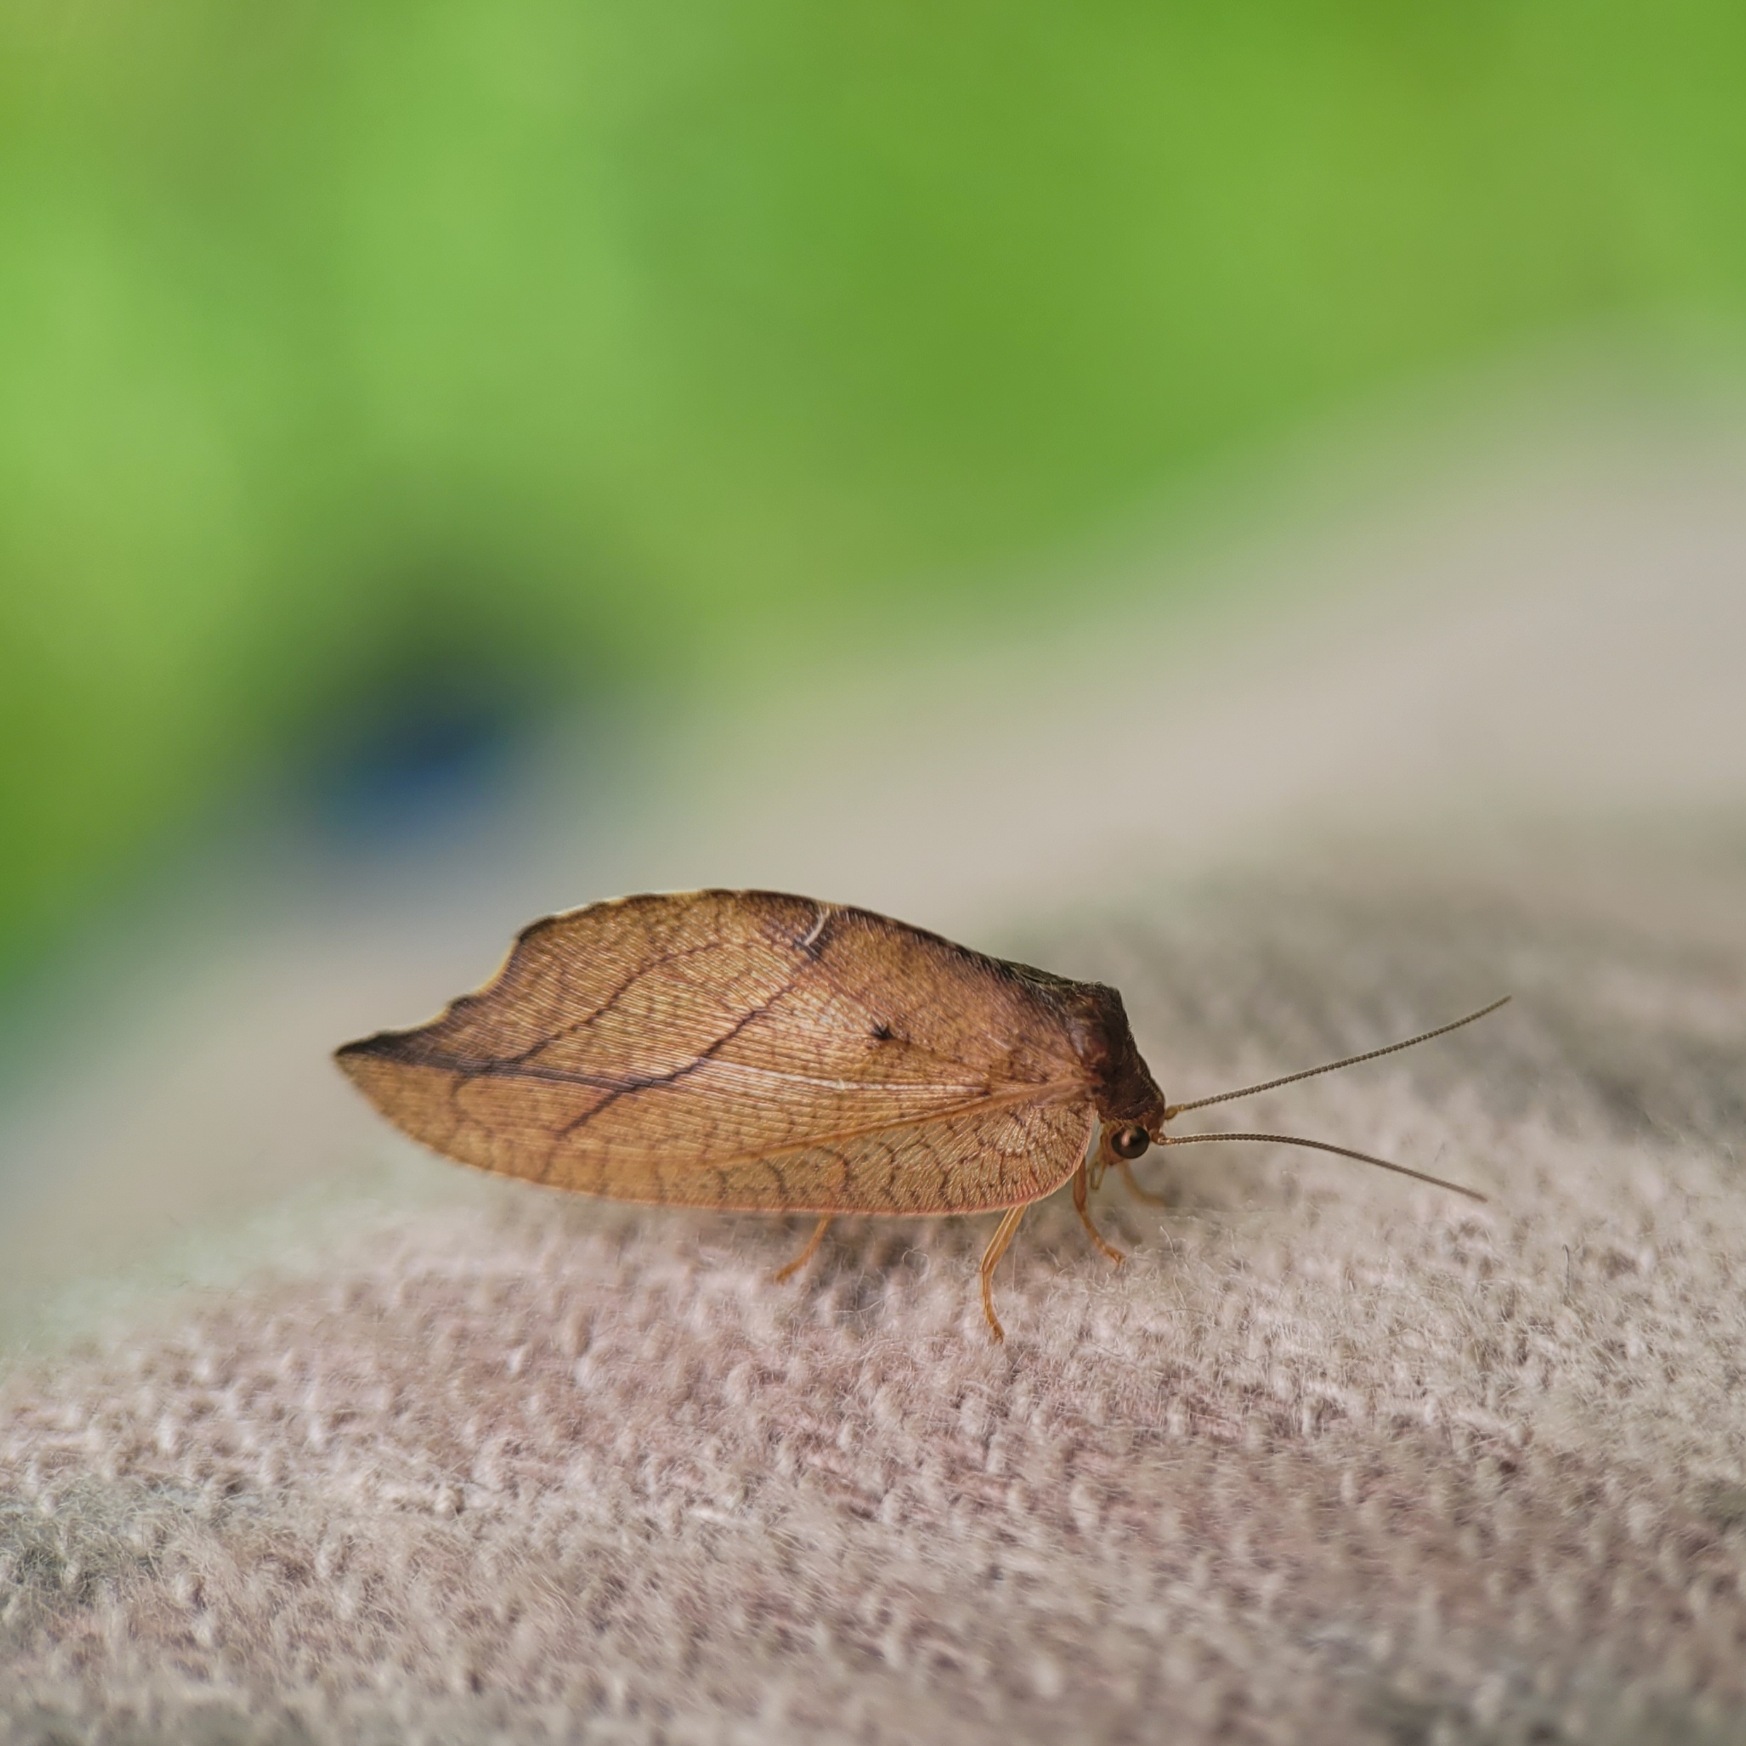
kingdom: Animalia
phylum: Arthropoda
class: Insecta
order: Neuroptera
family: Hemerobiidae
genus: Drepanepteryx
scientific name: Drepanepteryx phalaenoides
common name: Det visne blad
